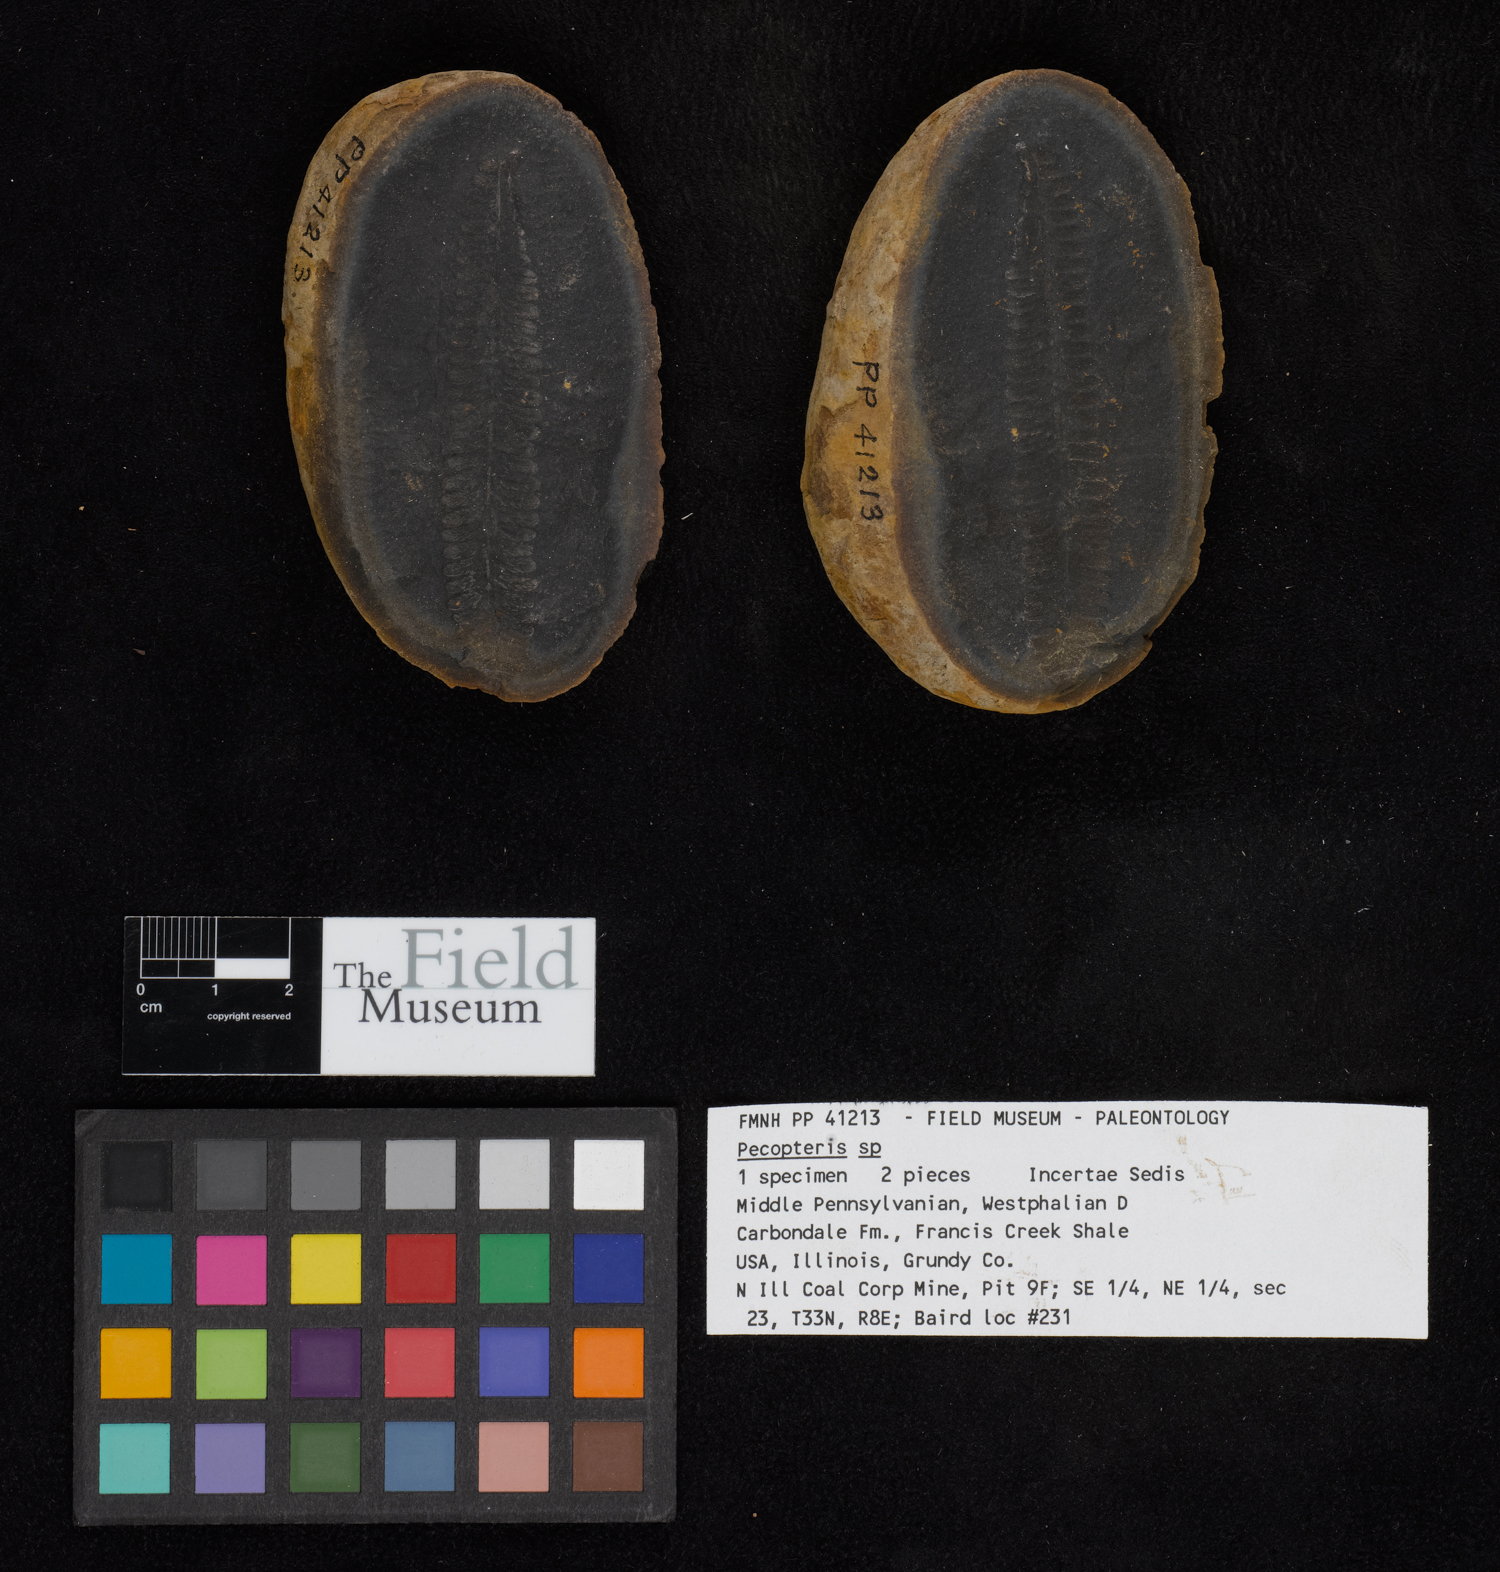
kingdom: Plantae
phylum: Tracheophyta
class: Polypodiopsida
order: Marattiales
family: Asterothecaceae
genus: Pecopteris
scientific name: Pecopteris
